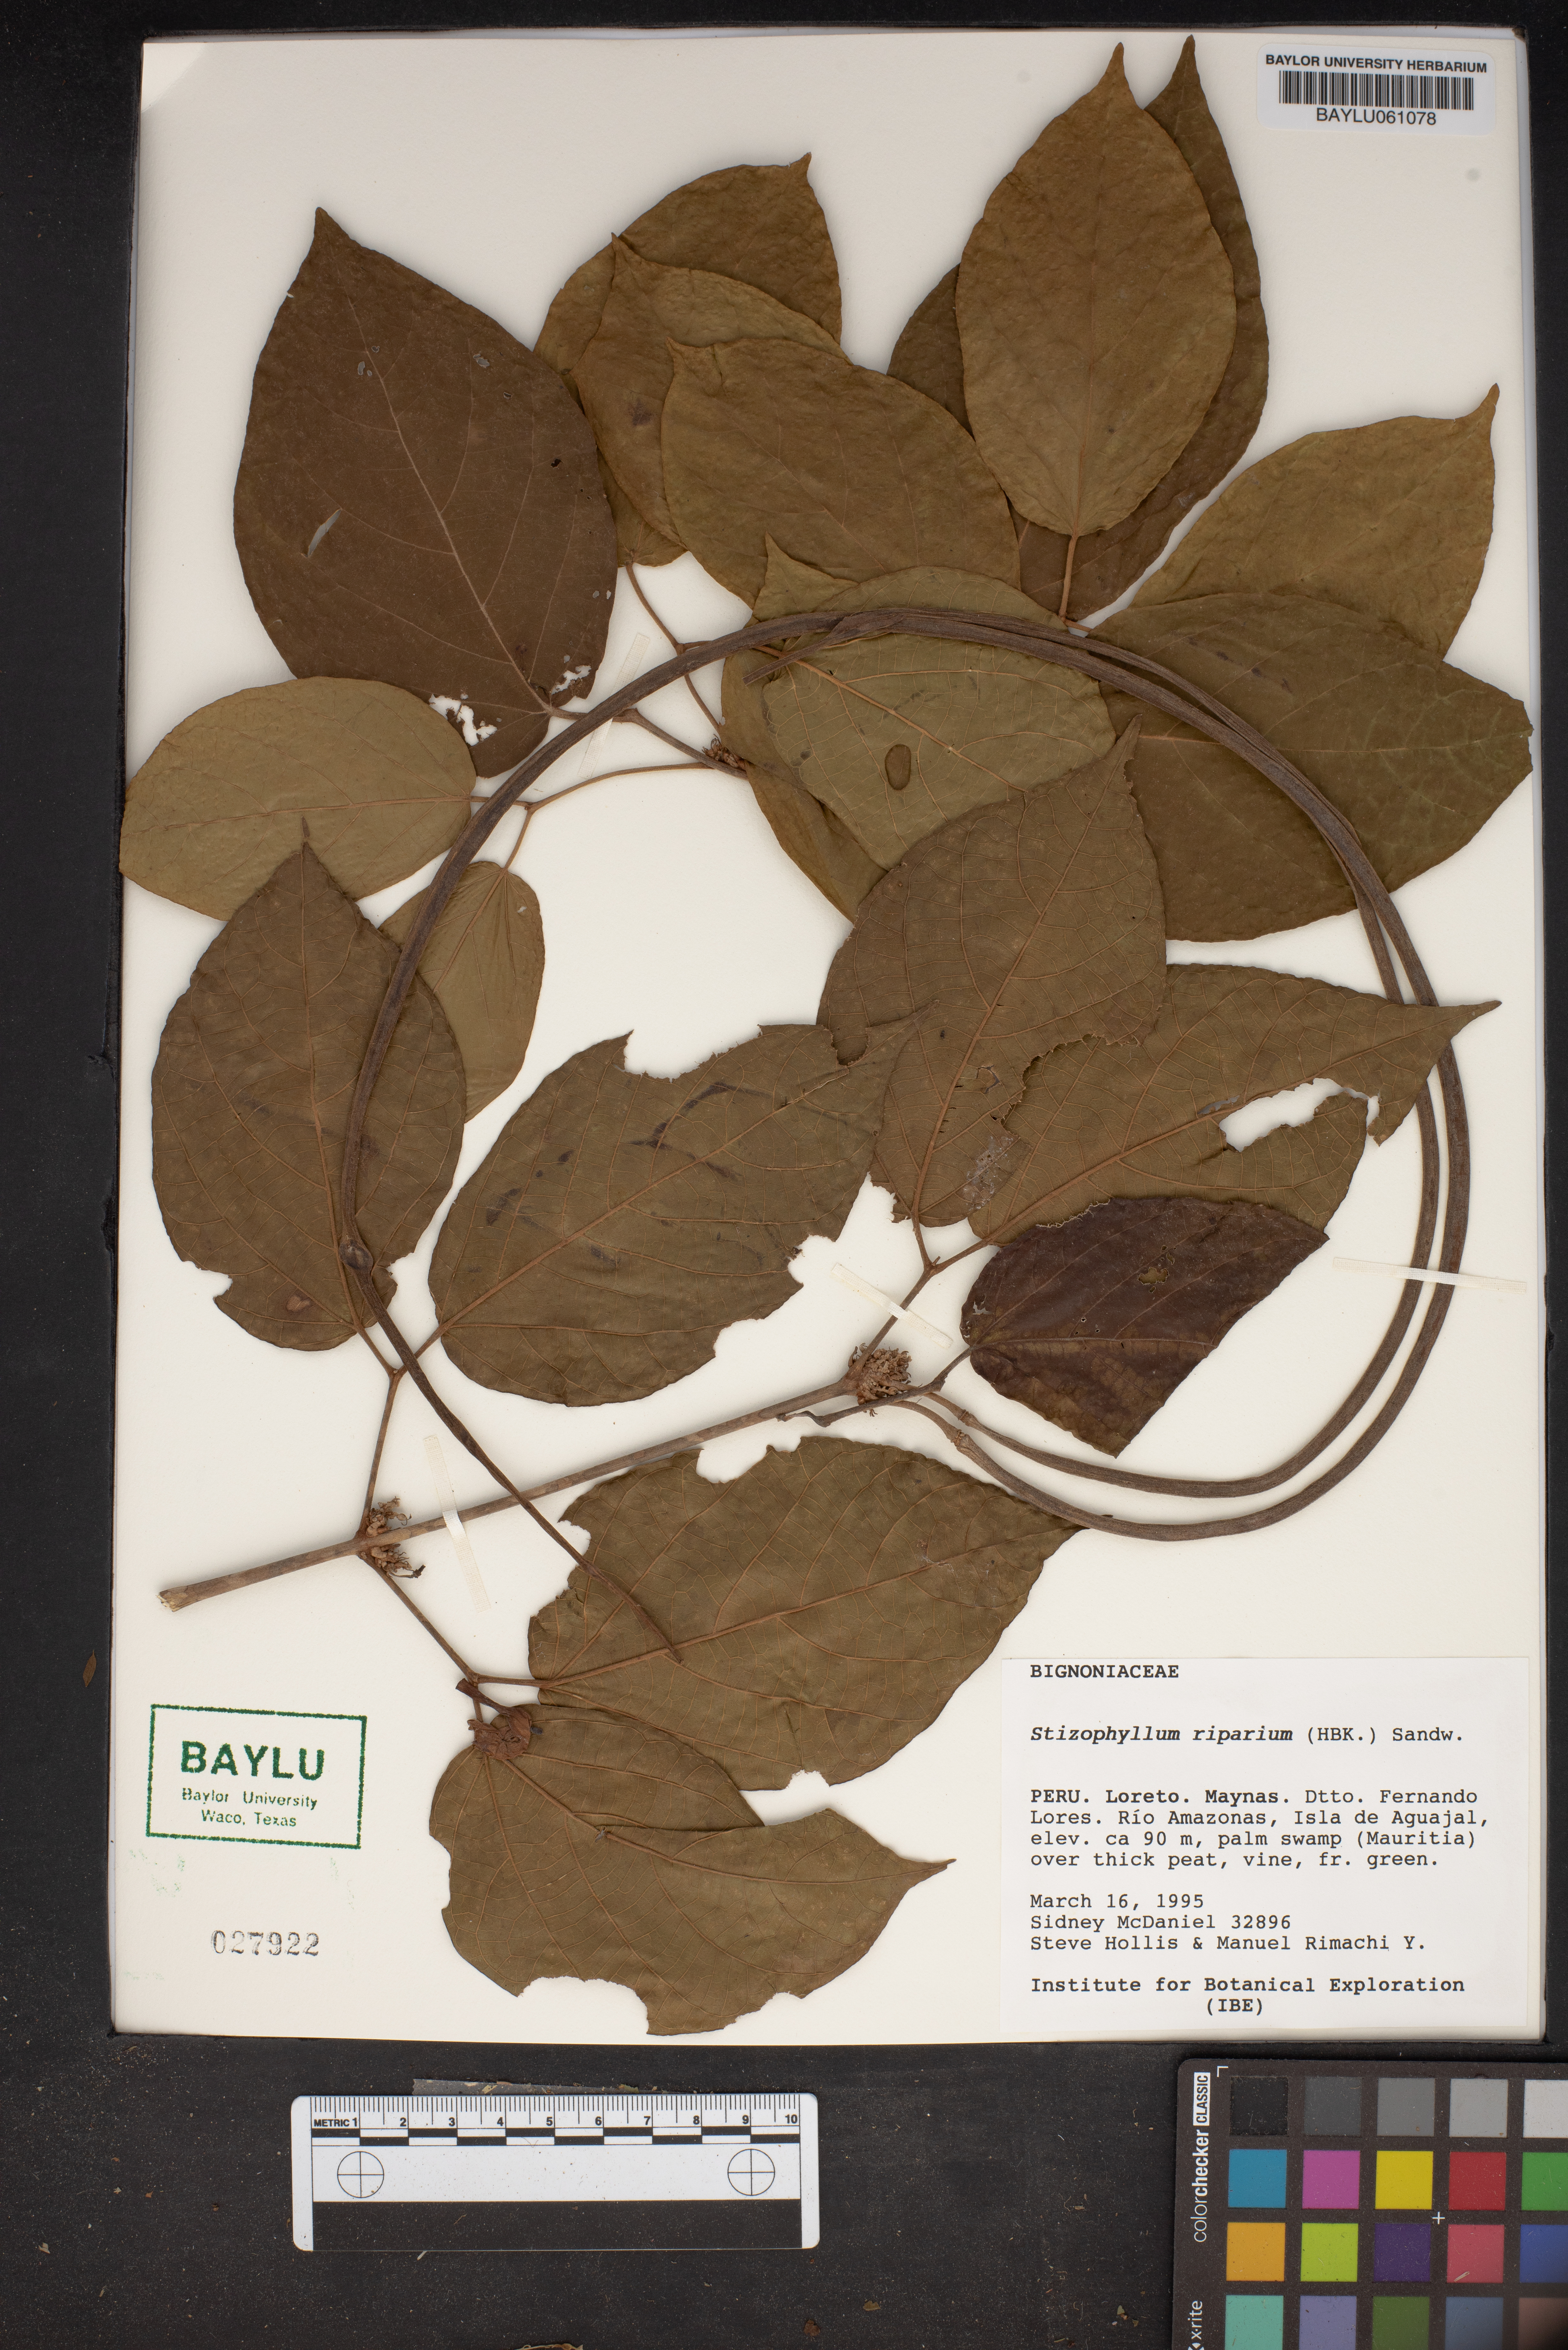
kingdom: Plantae
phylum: Tracheophyta
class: Magnoliopsida
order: Lamiales
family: Bignoniaceae
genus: Stizophyllum
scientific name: Stizophyllum riparium
